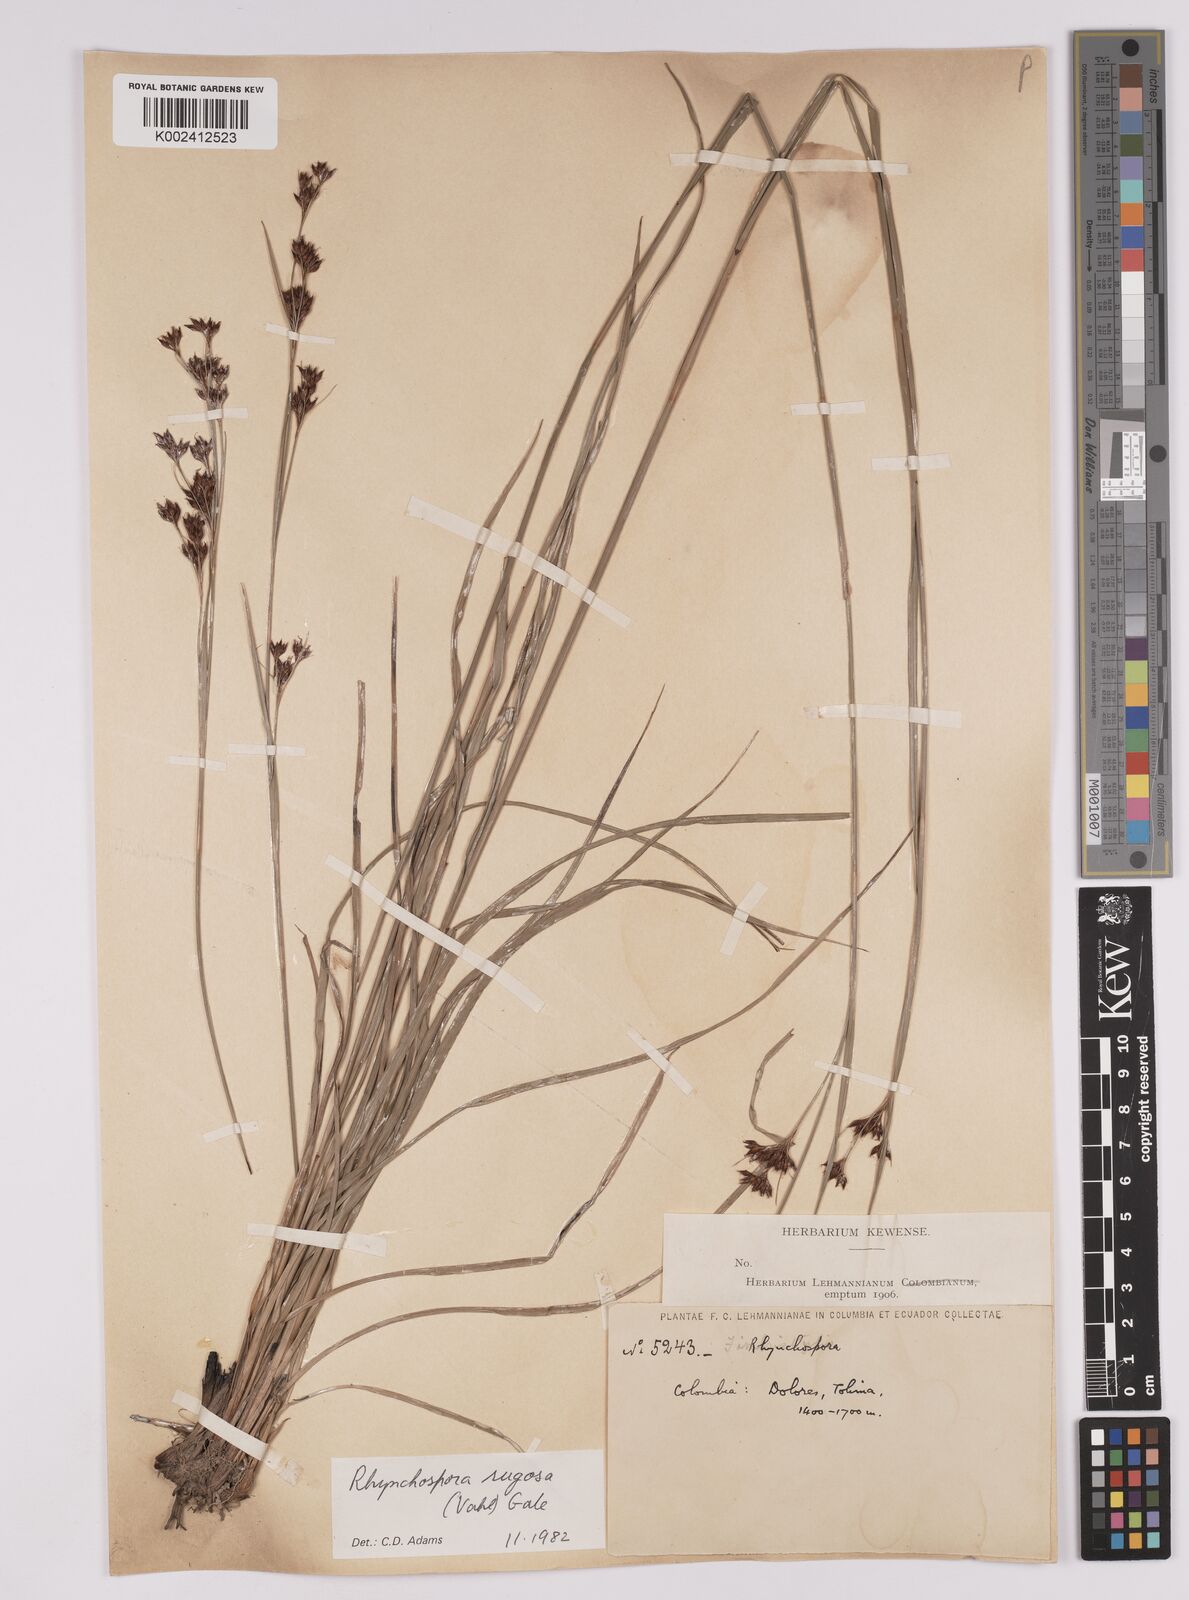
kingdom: Plantae
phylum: Tracheophyta
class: Liliopsida
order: Poales
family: Cyperaceae
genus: Rhynchospora
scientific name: Rhynchospora rugosa
